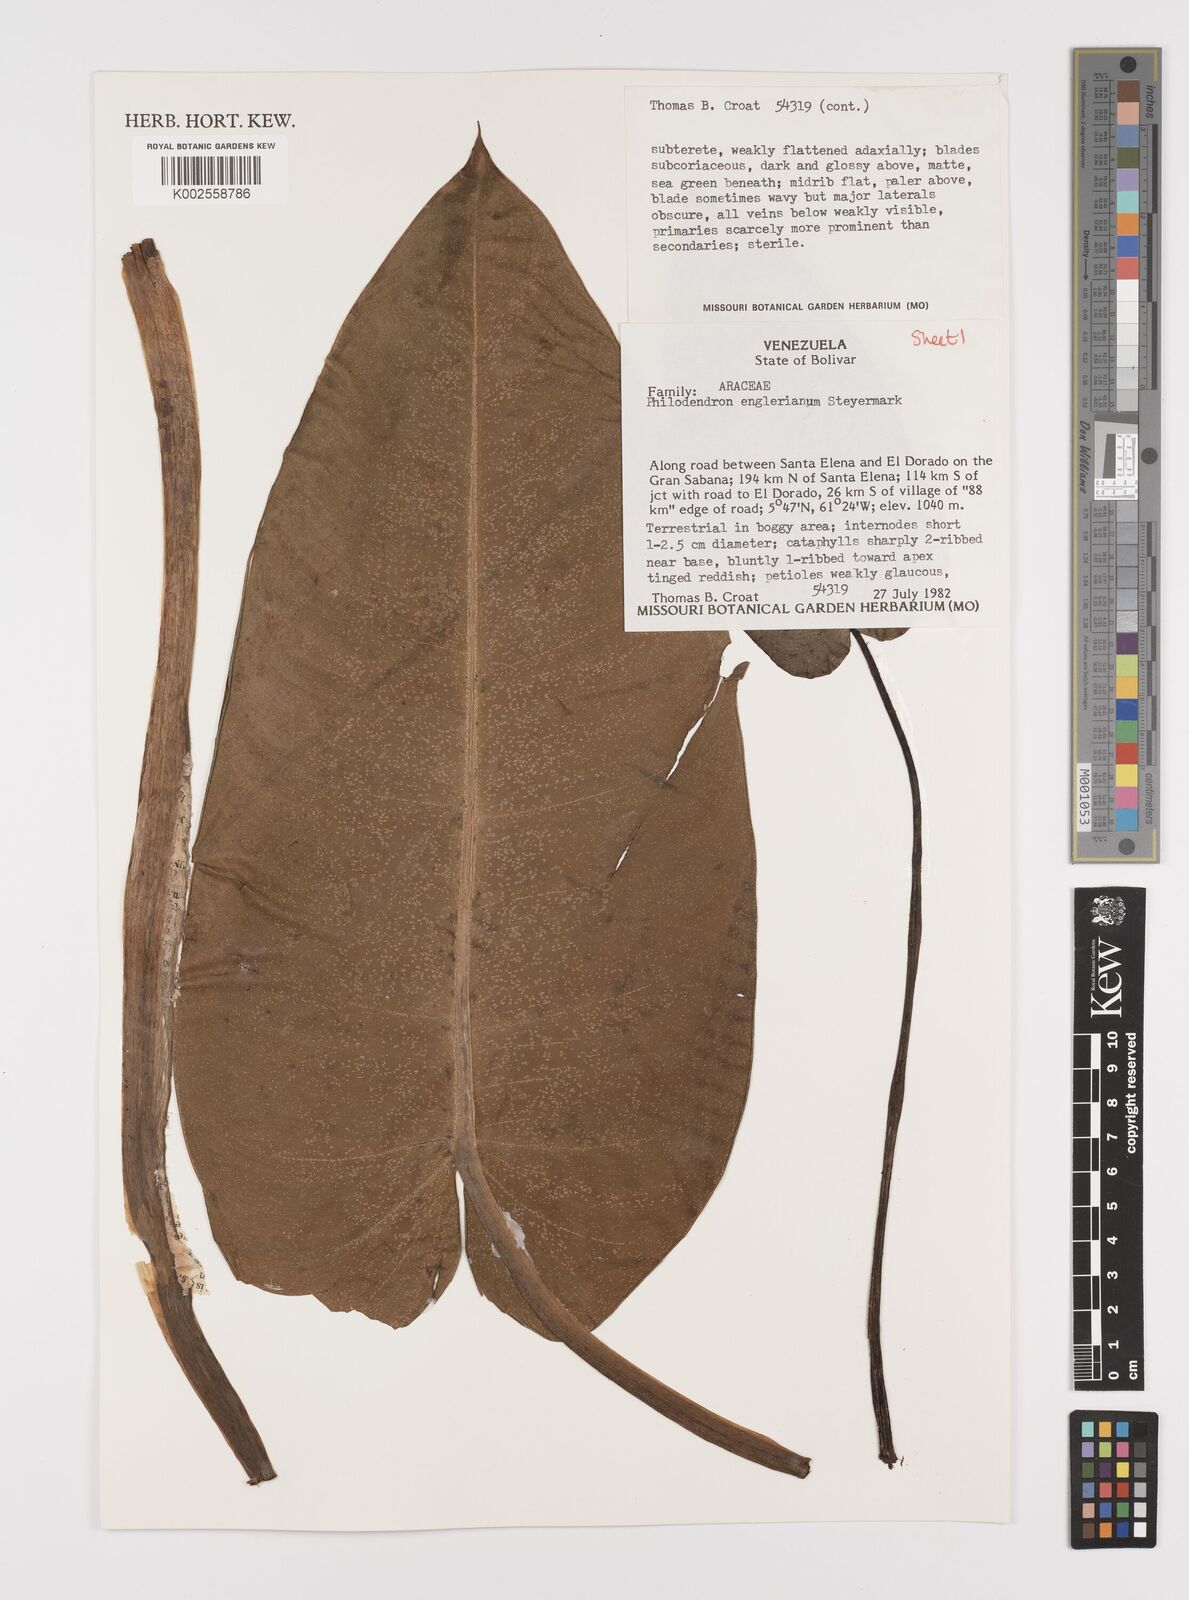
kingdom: Plantae
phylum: Tracheophyta
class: Liliopsida
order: Alismatales
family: Araceae
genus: Philodendron
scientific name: Philodendron englerianum
